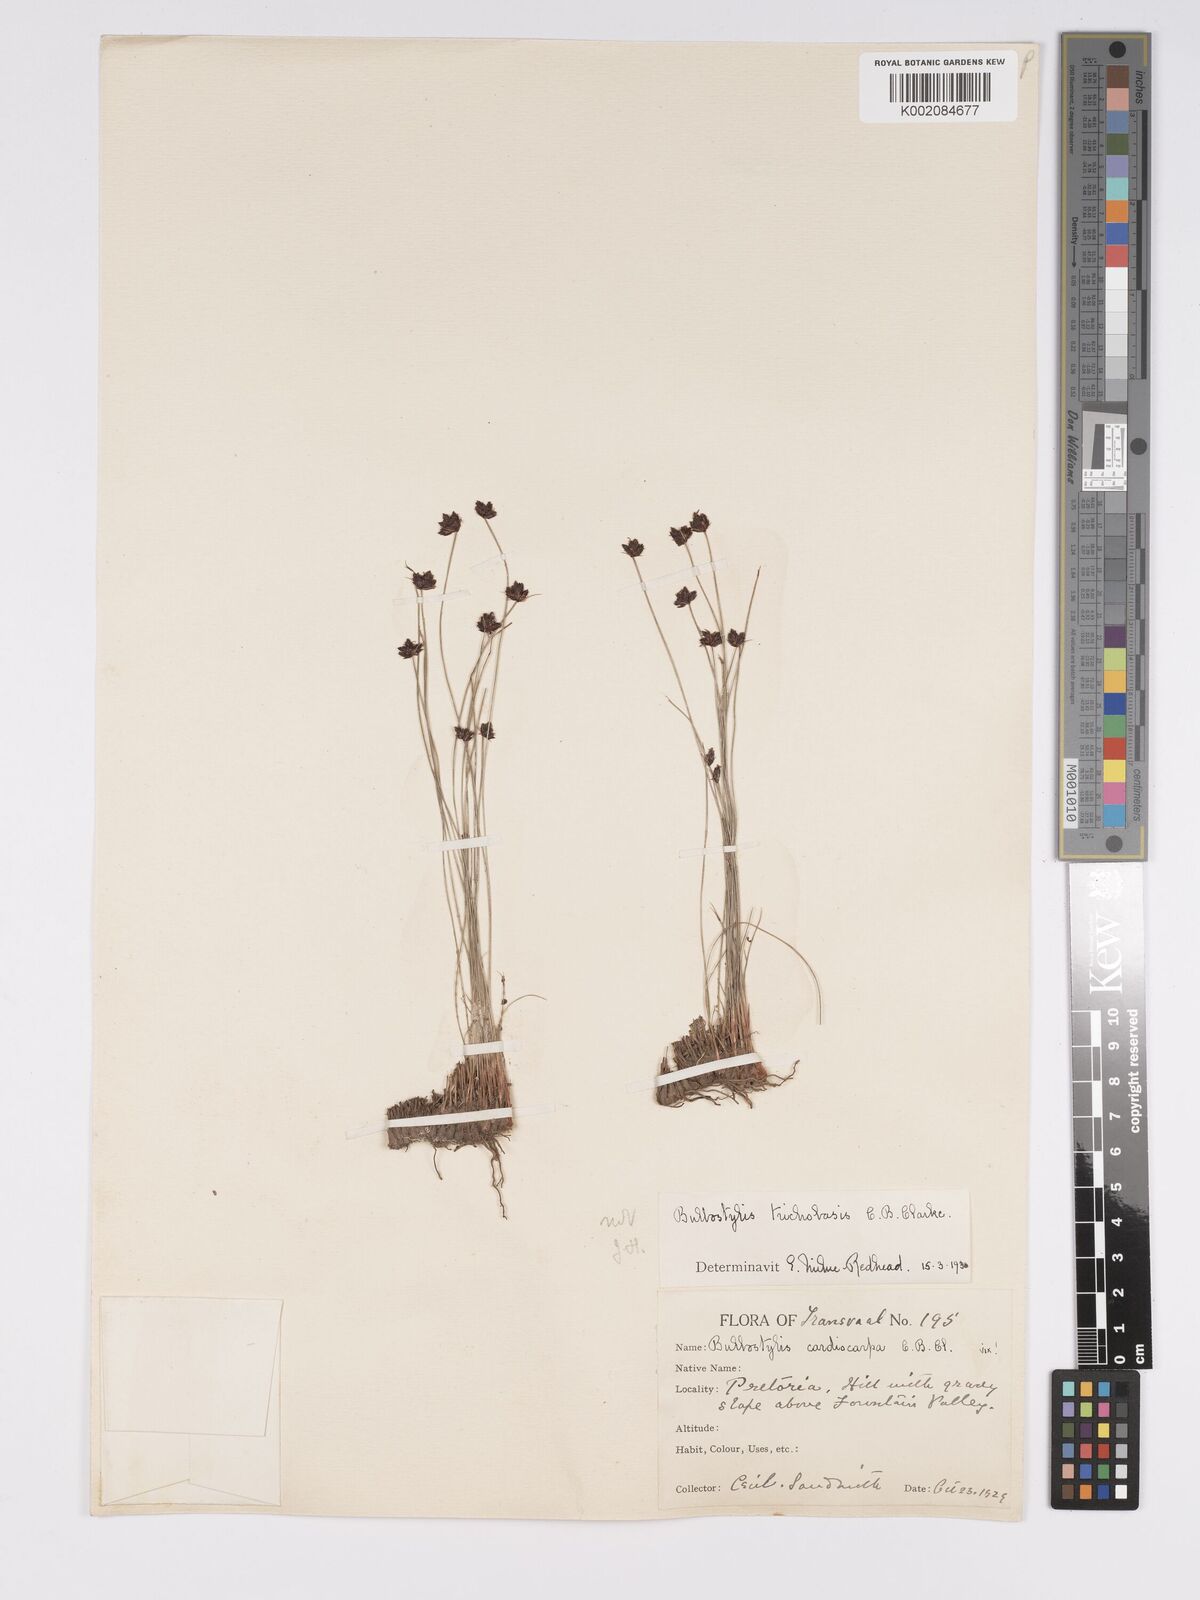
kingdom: Plantae
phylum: Tracheophyta
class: Liliopsida
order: Poales
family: Cyperaceae
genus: Bulbostylis
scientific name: Bulbostylis oritrephes
